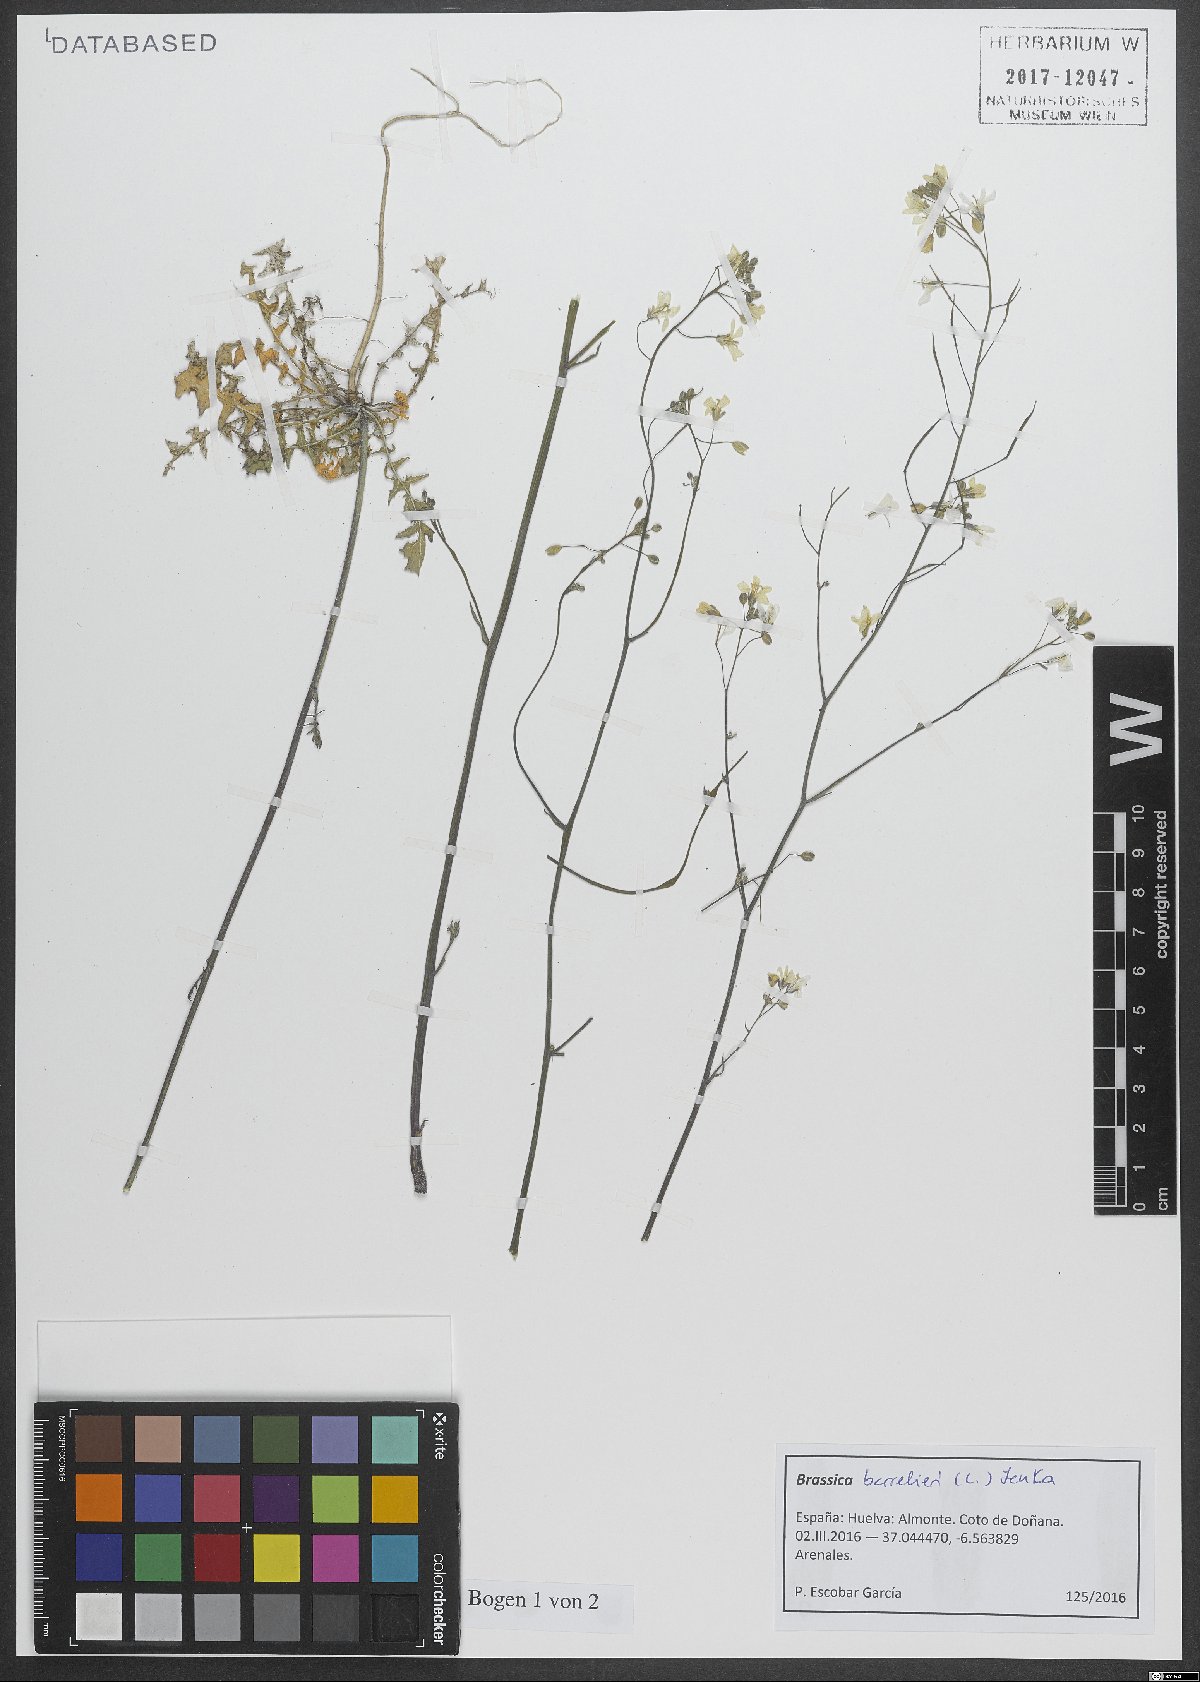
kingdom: Plantae
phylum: Tracheophyta
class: Magnoliopsida
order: Brassicales
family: Brassicaceae
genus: Brassica
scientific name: Brassica barrelieri
